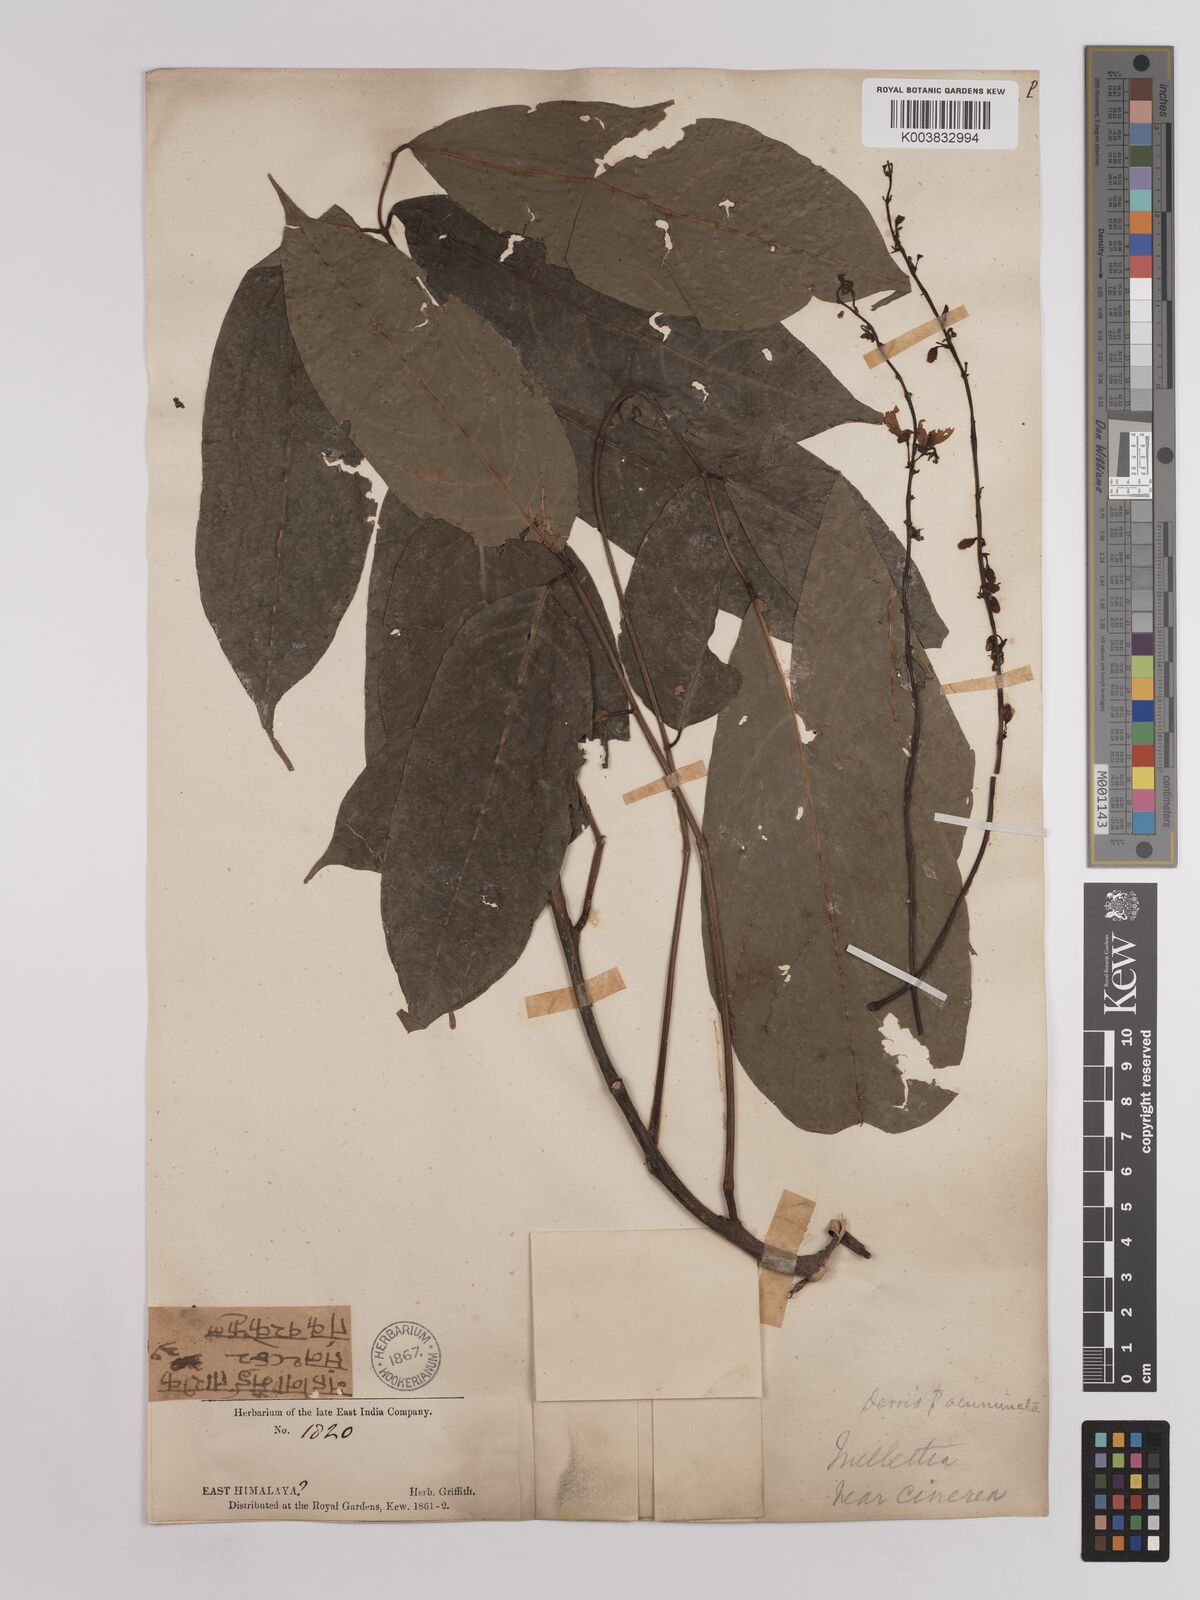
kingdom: Plantae
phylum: Tracheophyta
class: Magnoliopsida
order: Fabales
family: Fabaceae
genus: Derris
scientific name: Derris monticola
